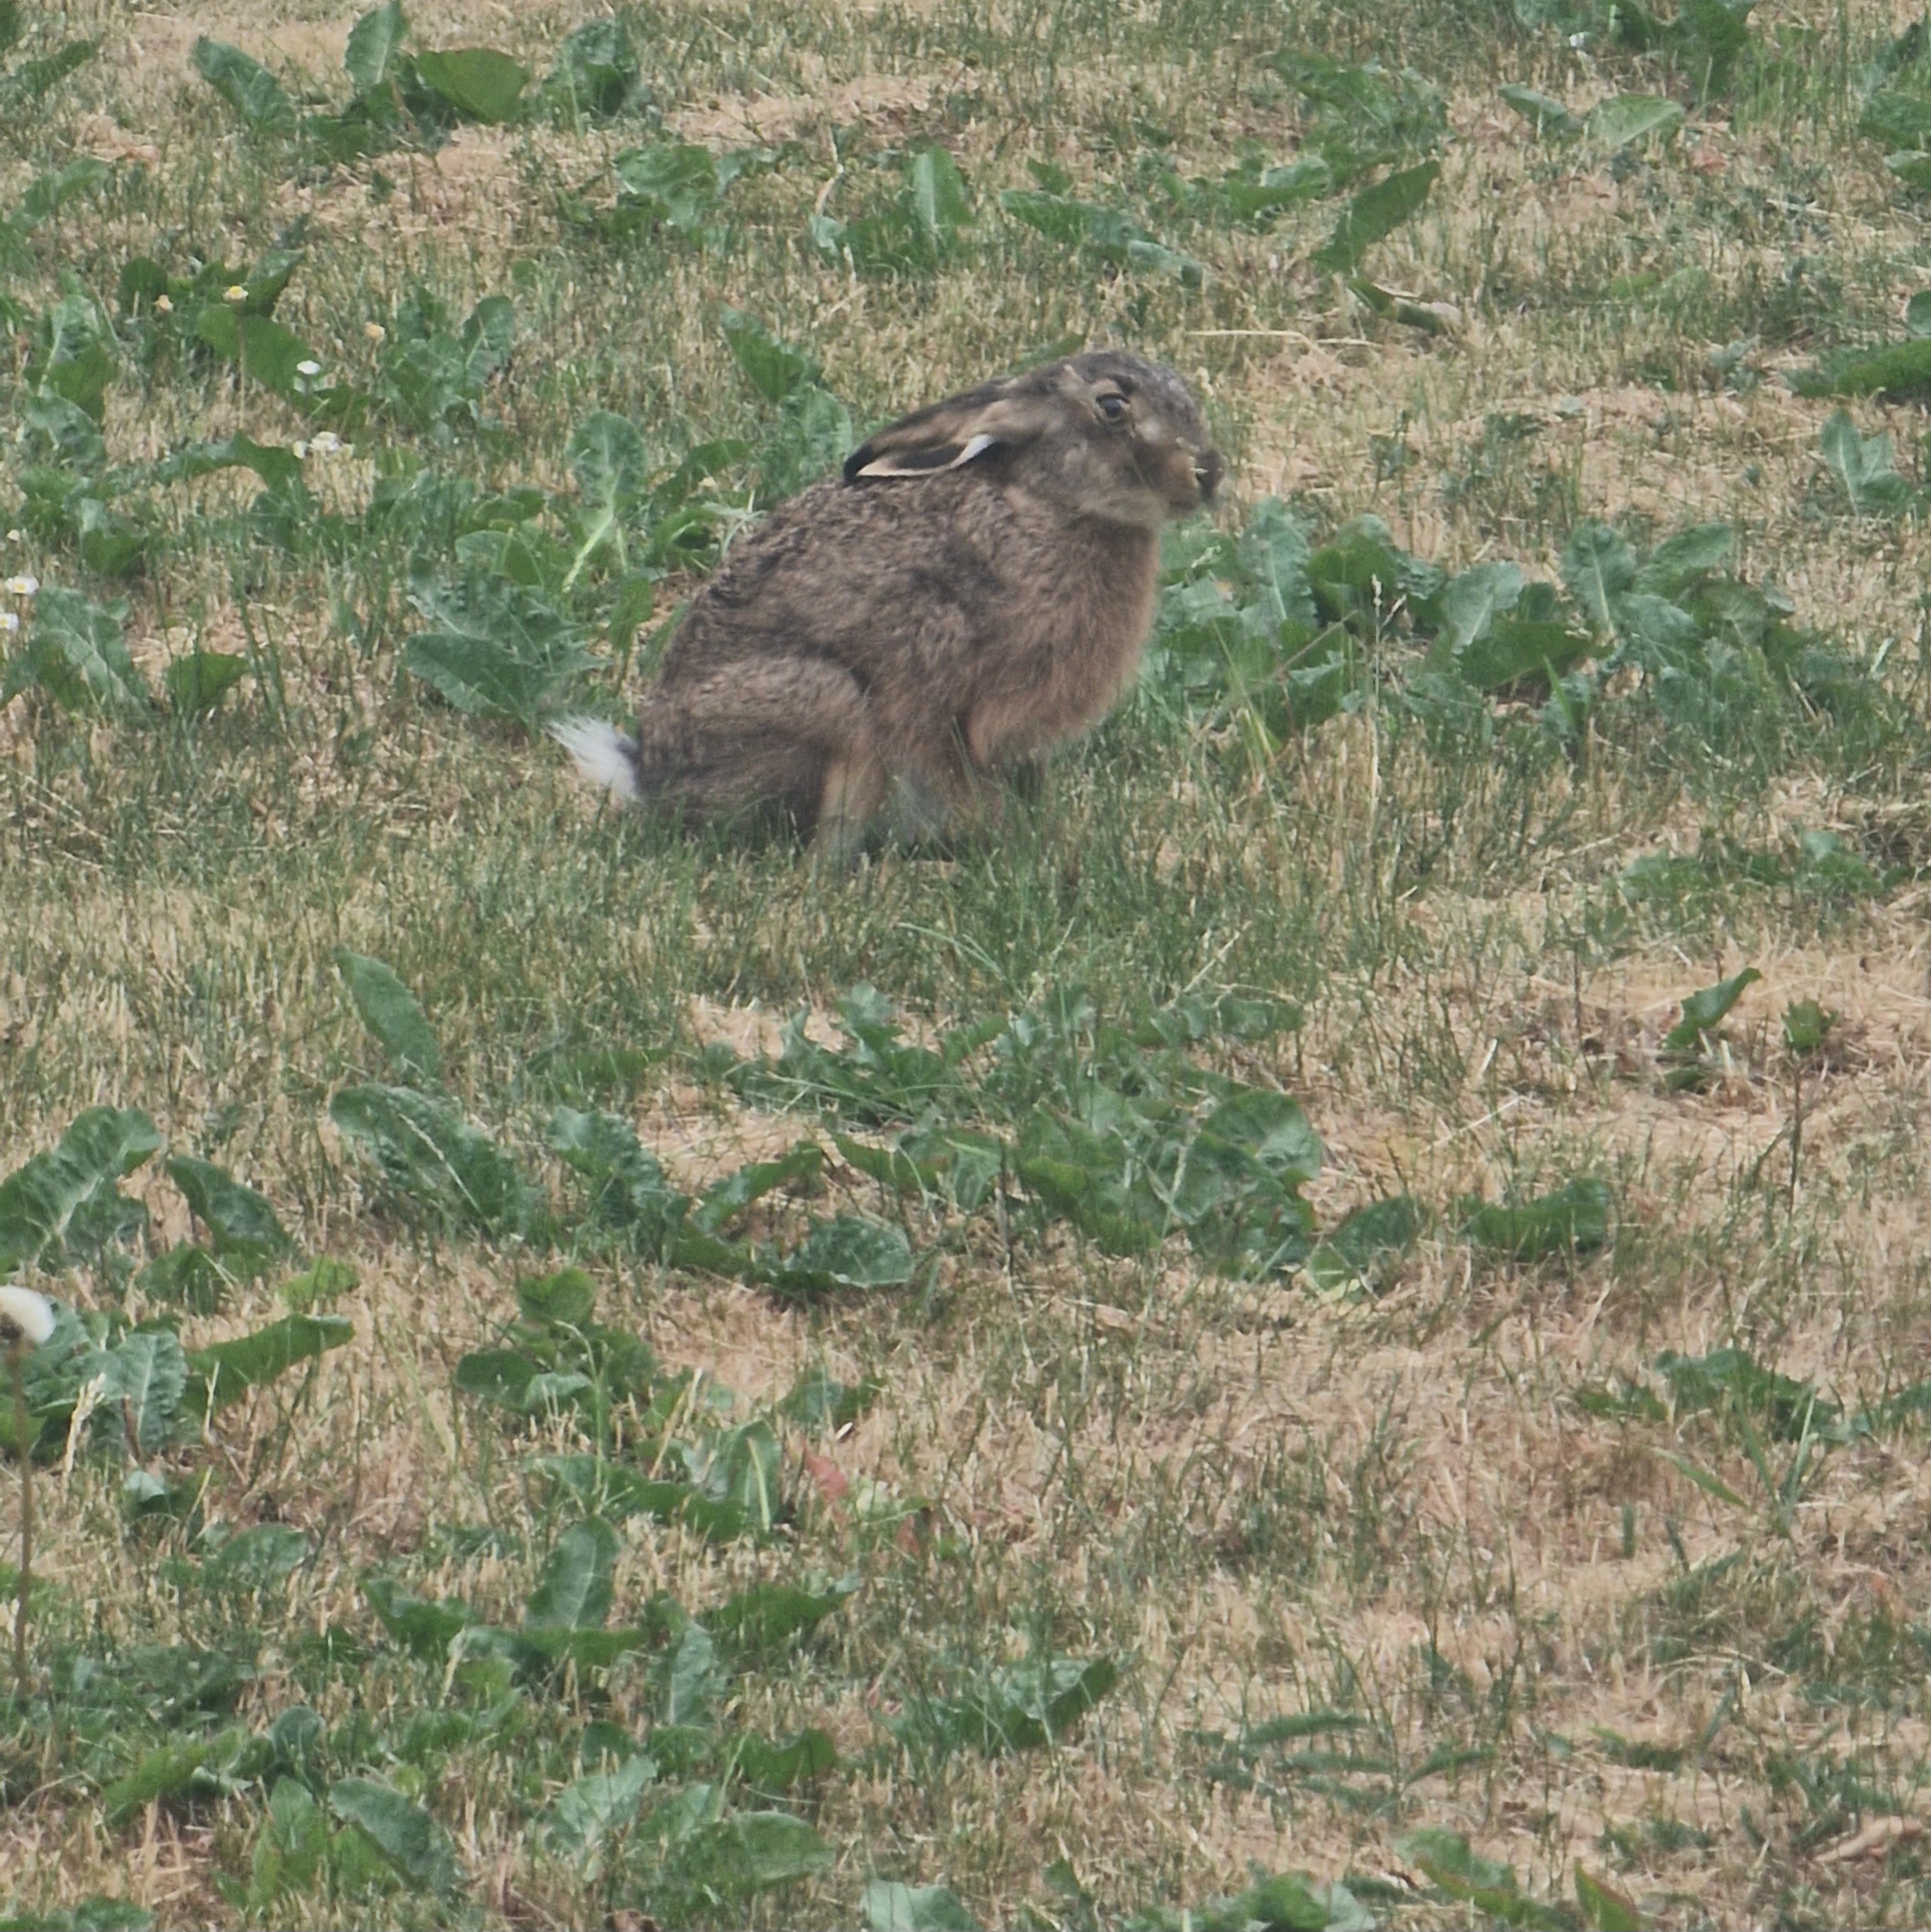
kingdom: Animalia
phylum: Chordata
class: Mammalia
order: Lagomorpha
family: Leporidae
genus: Lepus
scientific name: Lepus europaeus
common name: Hare
